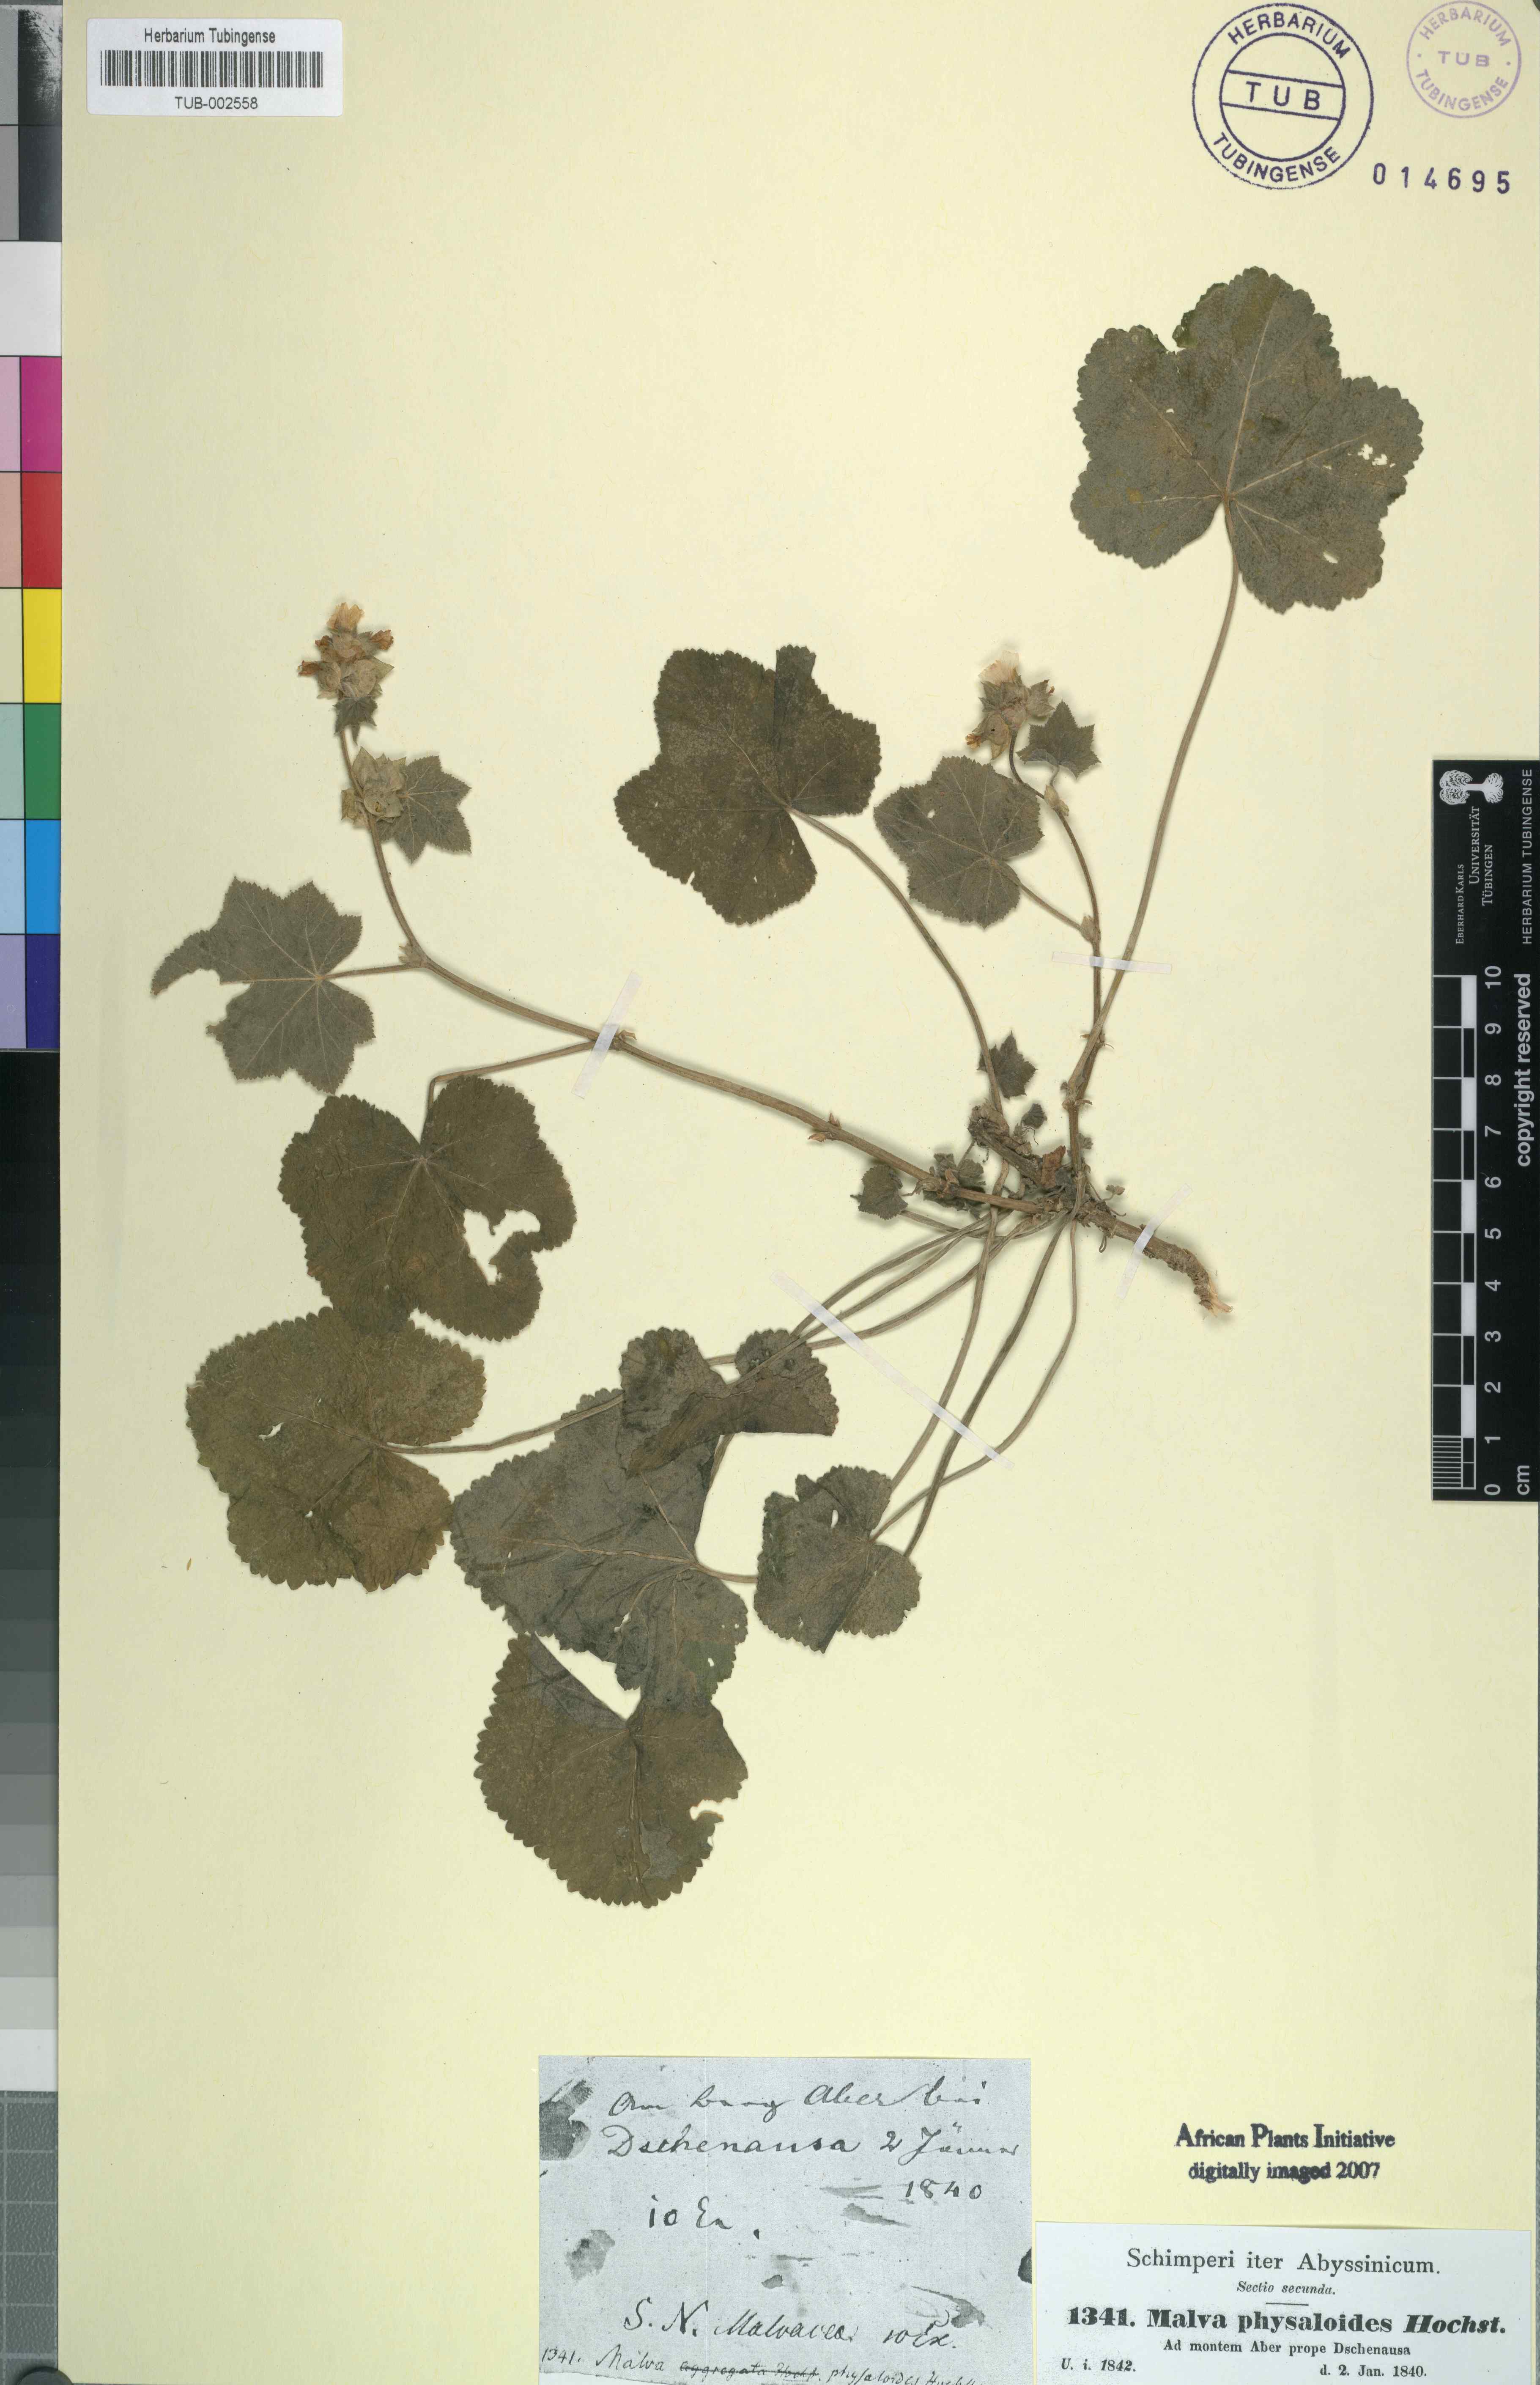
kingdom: Plantae
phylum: Tracheophyta
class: Magnoliopsida
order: Malvales
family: Malvaceae
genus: Malva
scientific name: Malva
